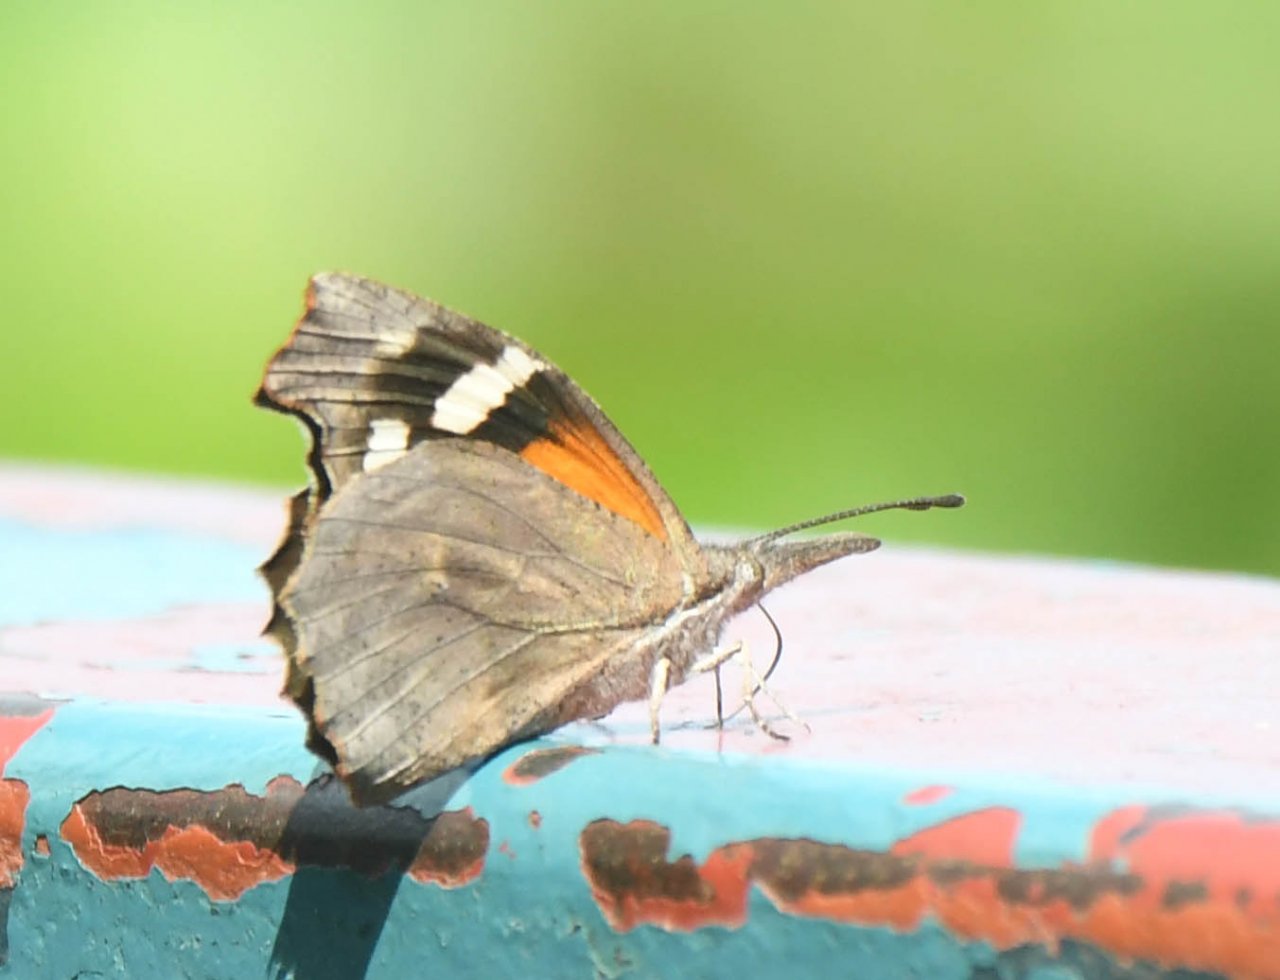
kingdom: Animalia
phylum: Arthropoda
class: Insecta
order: Lepidoptera
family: Nymphalidae
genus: Libytheana
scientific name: Libytheana carinenta
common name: American Snout
